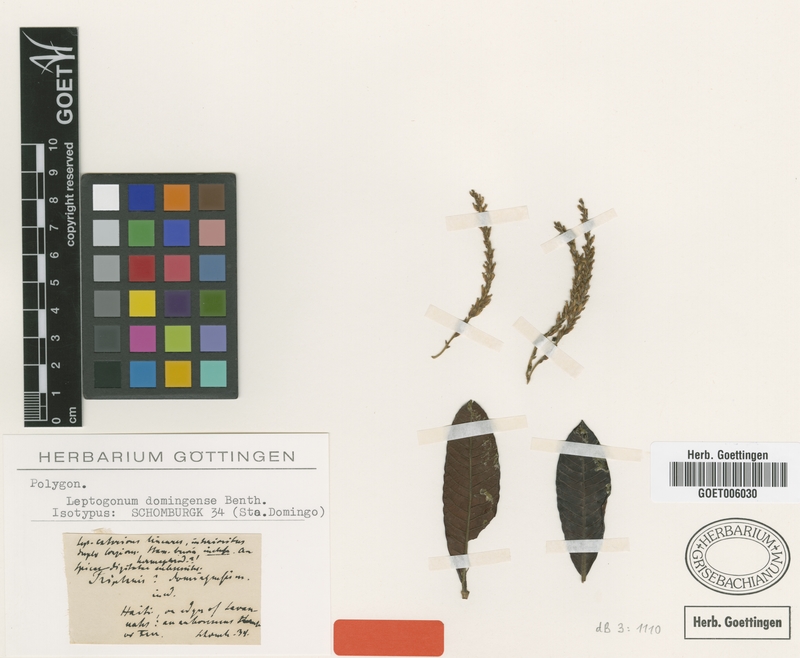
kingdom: Plantae
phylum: Tracheophyta
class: Magnoliopsida
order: Caryophyllales
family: Polygonaceae
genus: Leptogonum
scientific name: Leptogonum domingense
